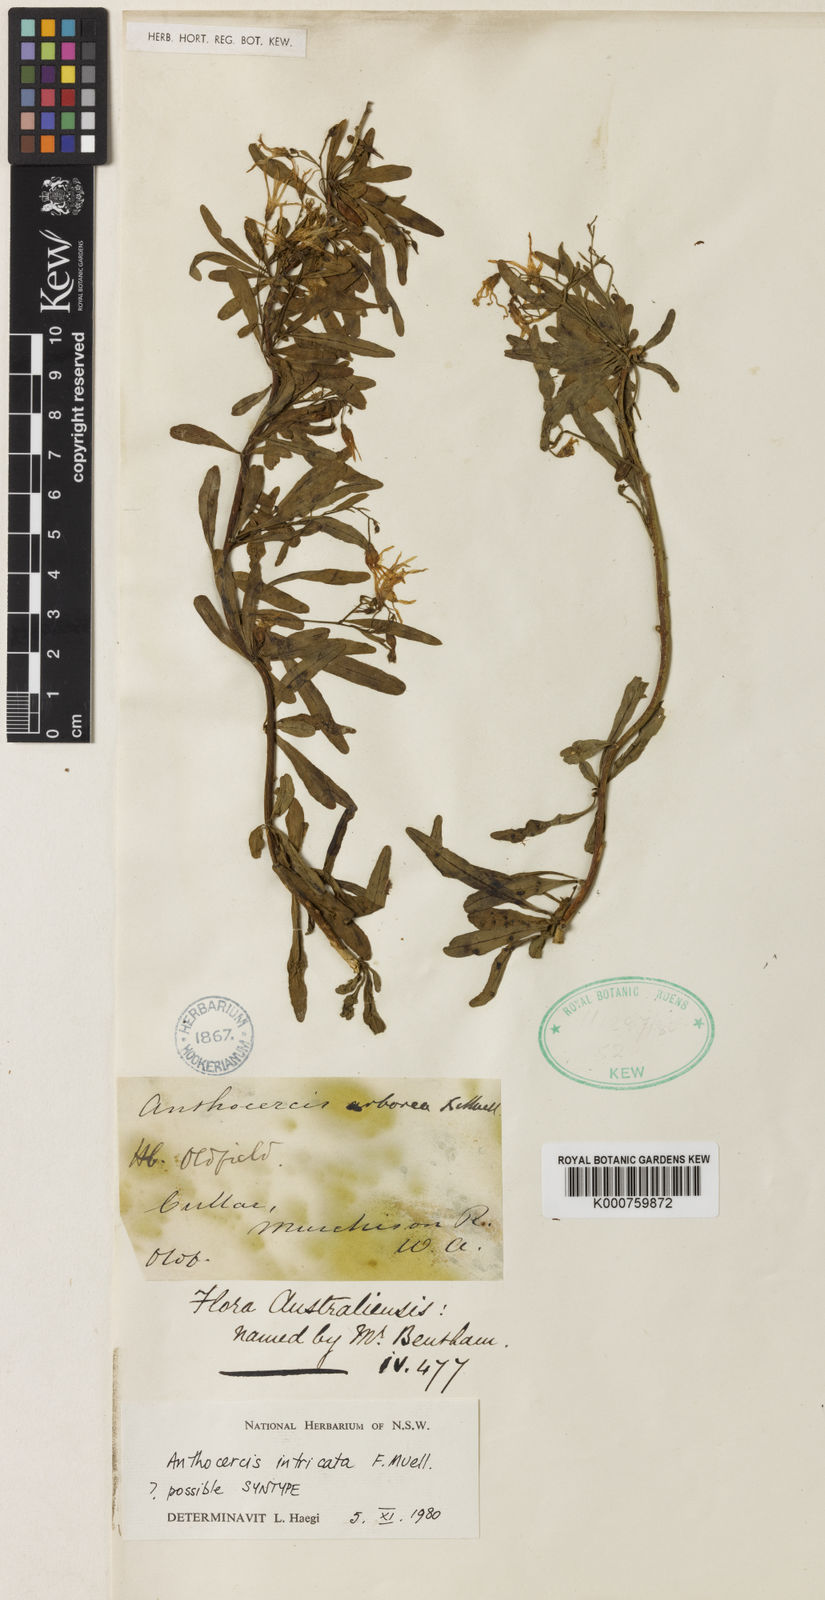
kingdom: Plantae
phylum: Tracheophyta
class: Magnoliopsida
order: Solanales
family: Solanaceae
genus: Anthocercis
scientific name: Anthocercis intricata
